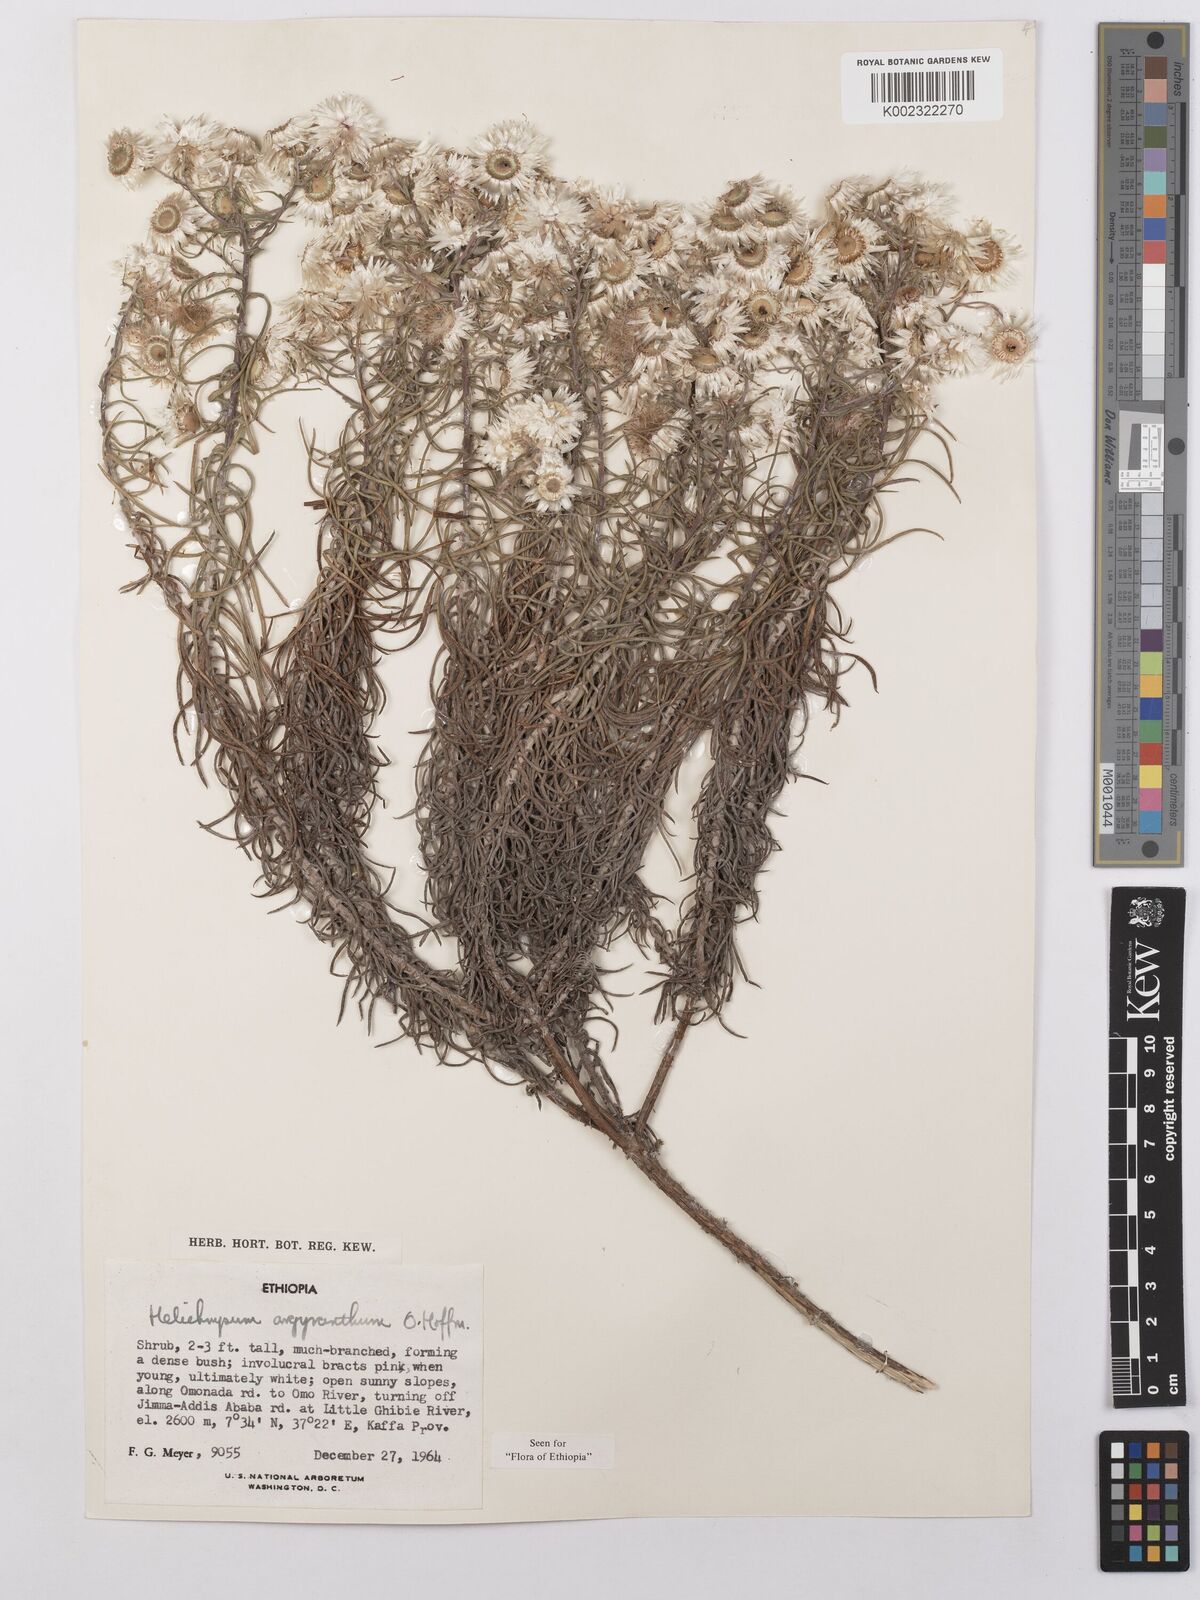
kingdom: Plantae
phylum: Tracheophyta
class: Magnoliopsida
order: Asterales
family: Asteraceae
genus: Helichrysum
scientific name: Helichrysum argyranthum
